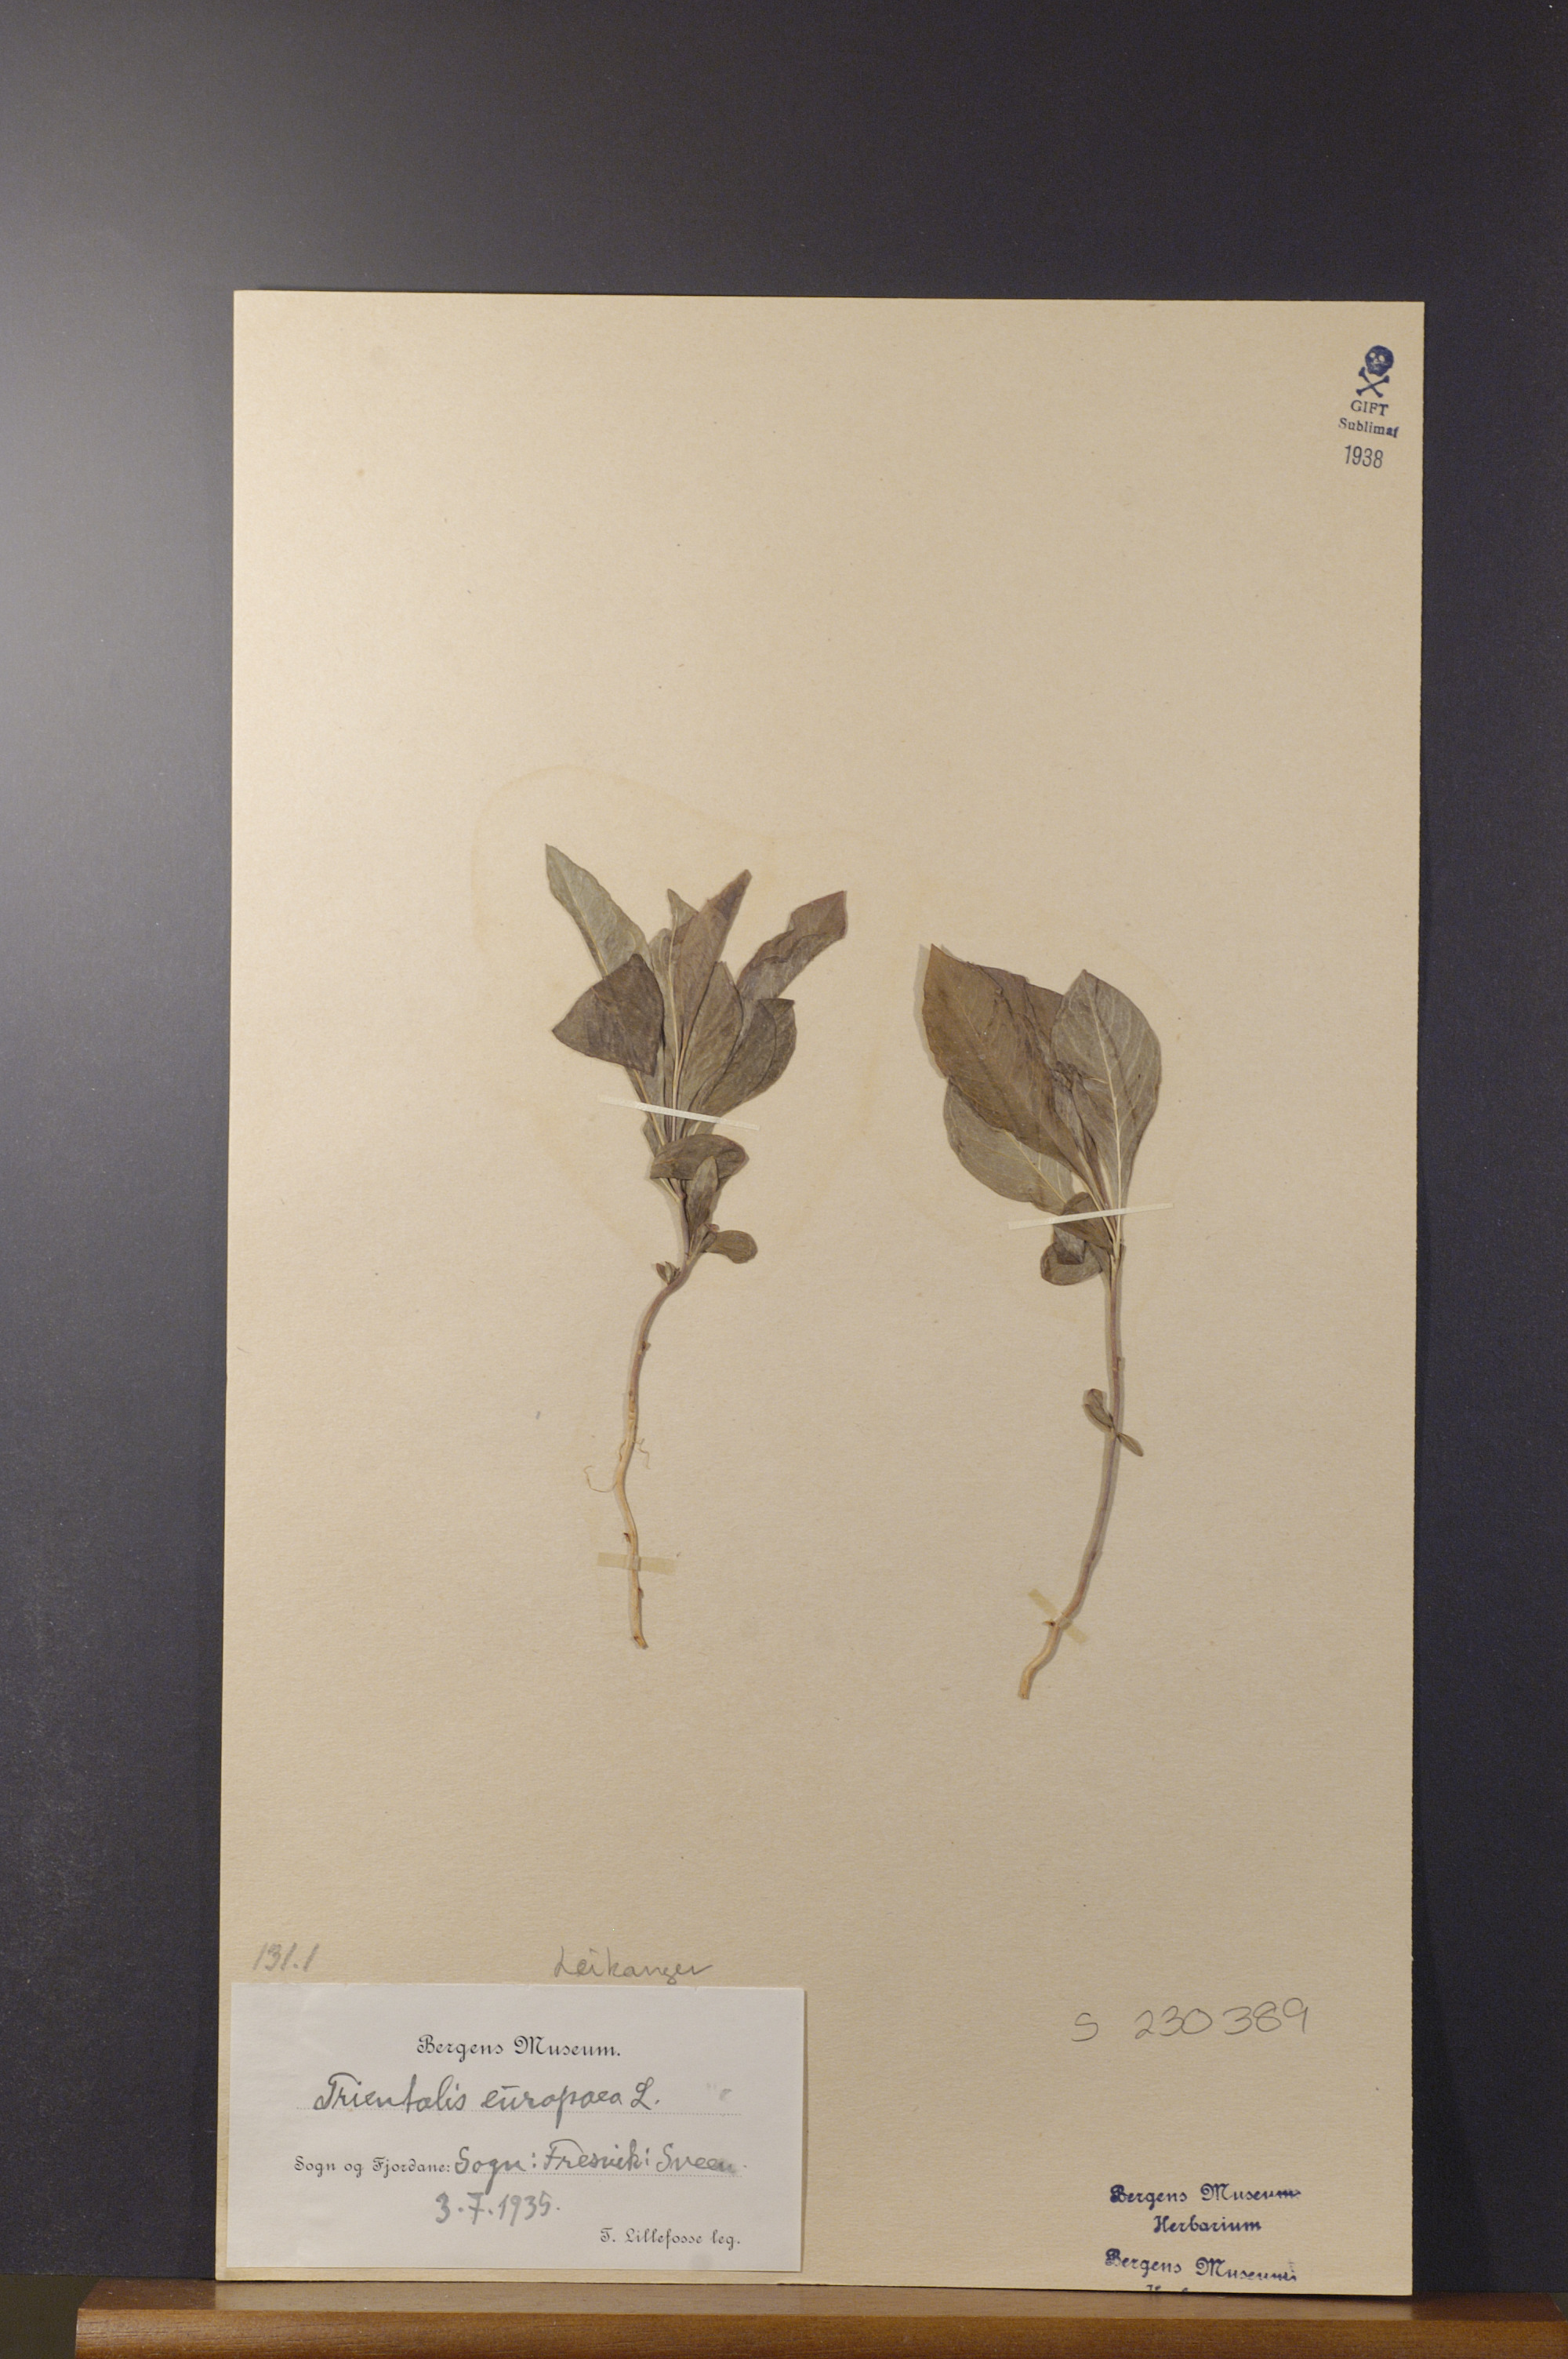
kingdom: Plantae
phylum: Tracheophyta
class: Magnoliopsida
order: Ericales
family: Primulaceae
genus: Lysimachia
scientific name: Lysimachia europaea
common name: Arctic starflower
